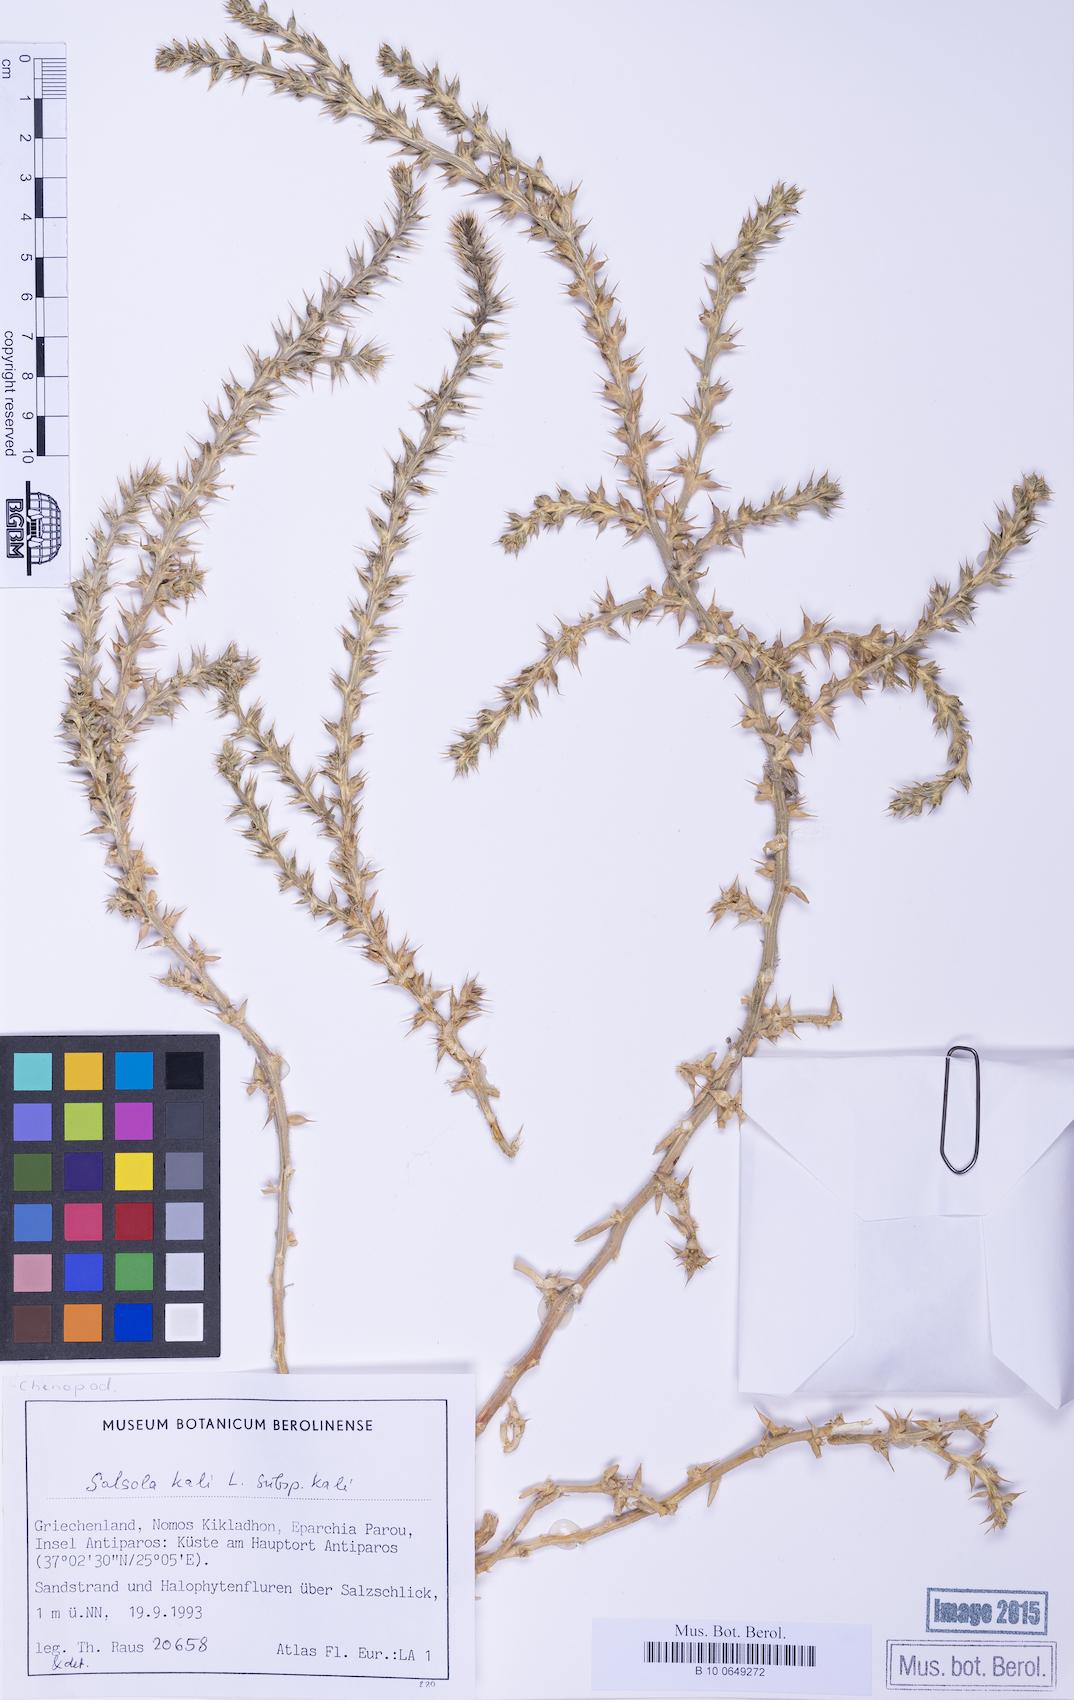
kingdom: Plantae
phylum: Tracheophyta
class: Magnoliopsida
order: Caryophyllales
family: Amaranthaceae
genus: Salsola
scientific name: Salsola squarrosa
